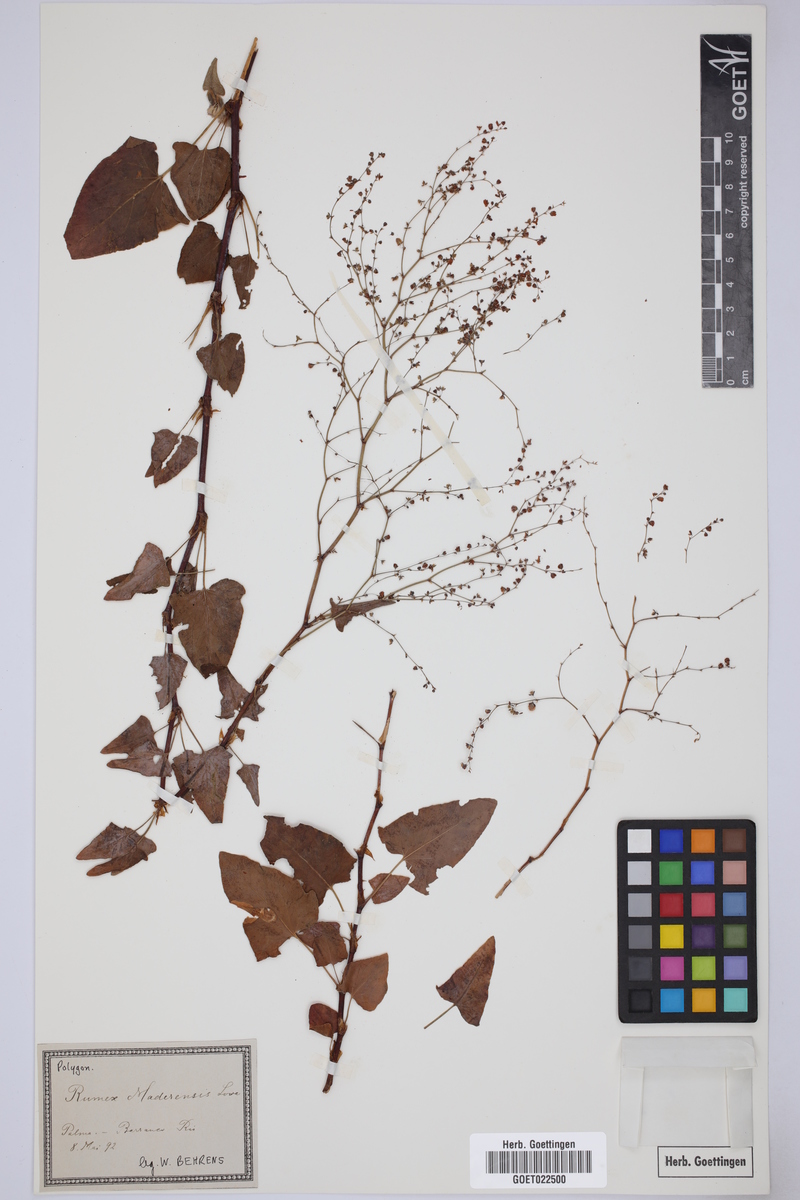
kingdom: Plantae
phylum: Tracheophyta
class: Magnoliopsida
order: Caryophyllales
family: Polygonaceae
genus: Rumex
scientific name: Rumex maderensis
